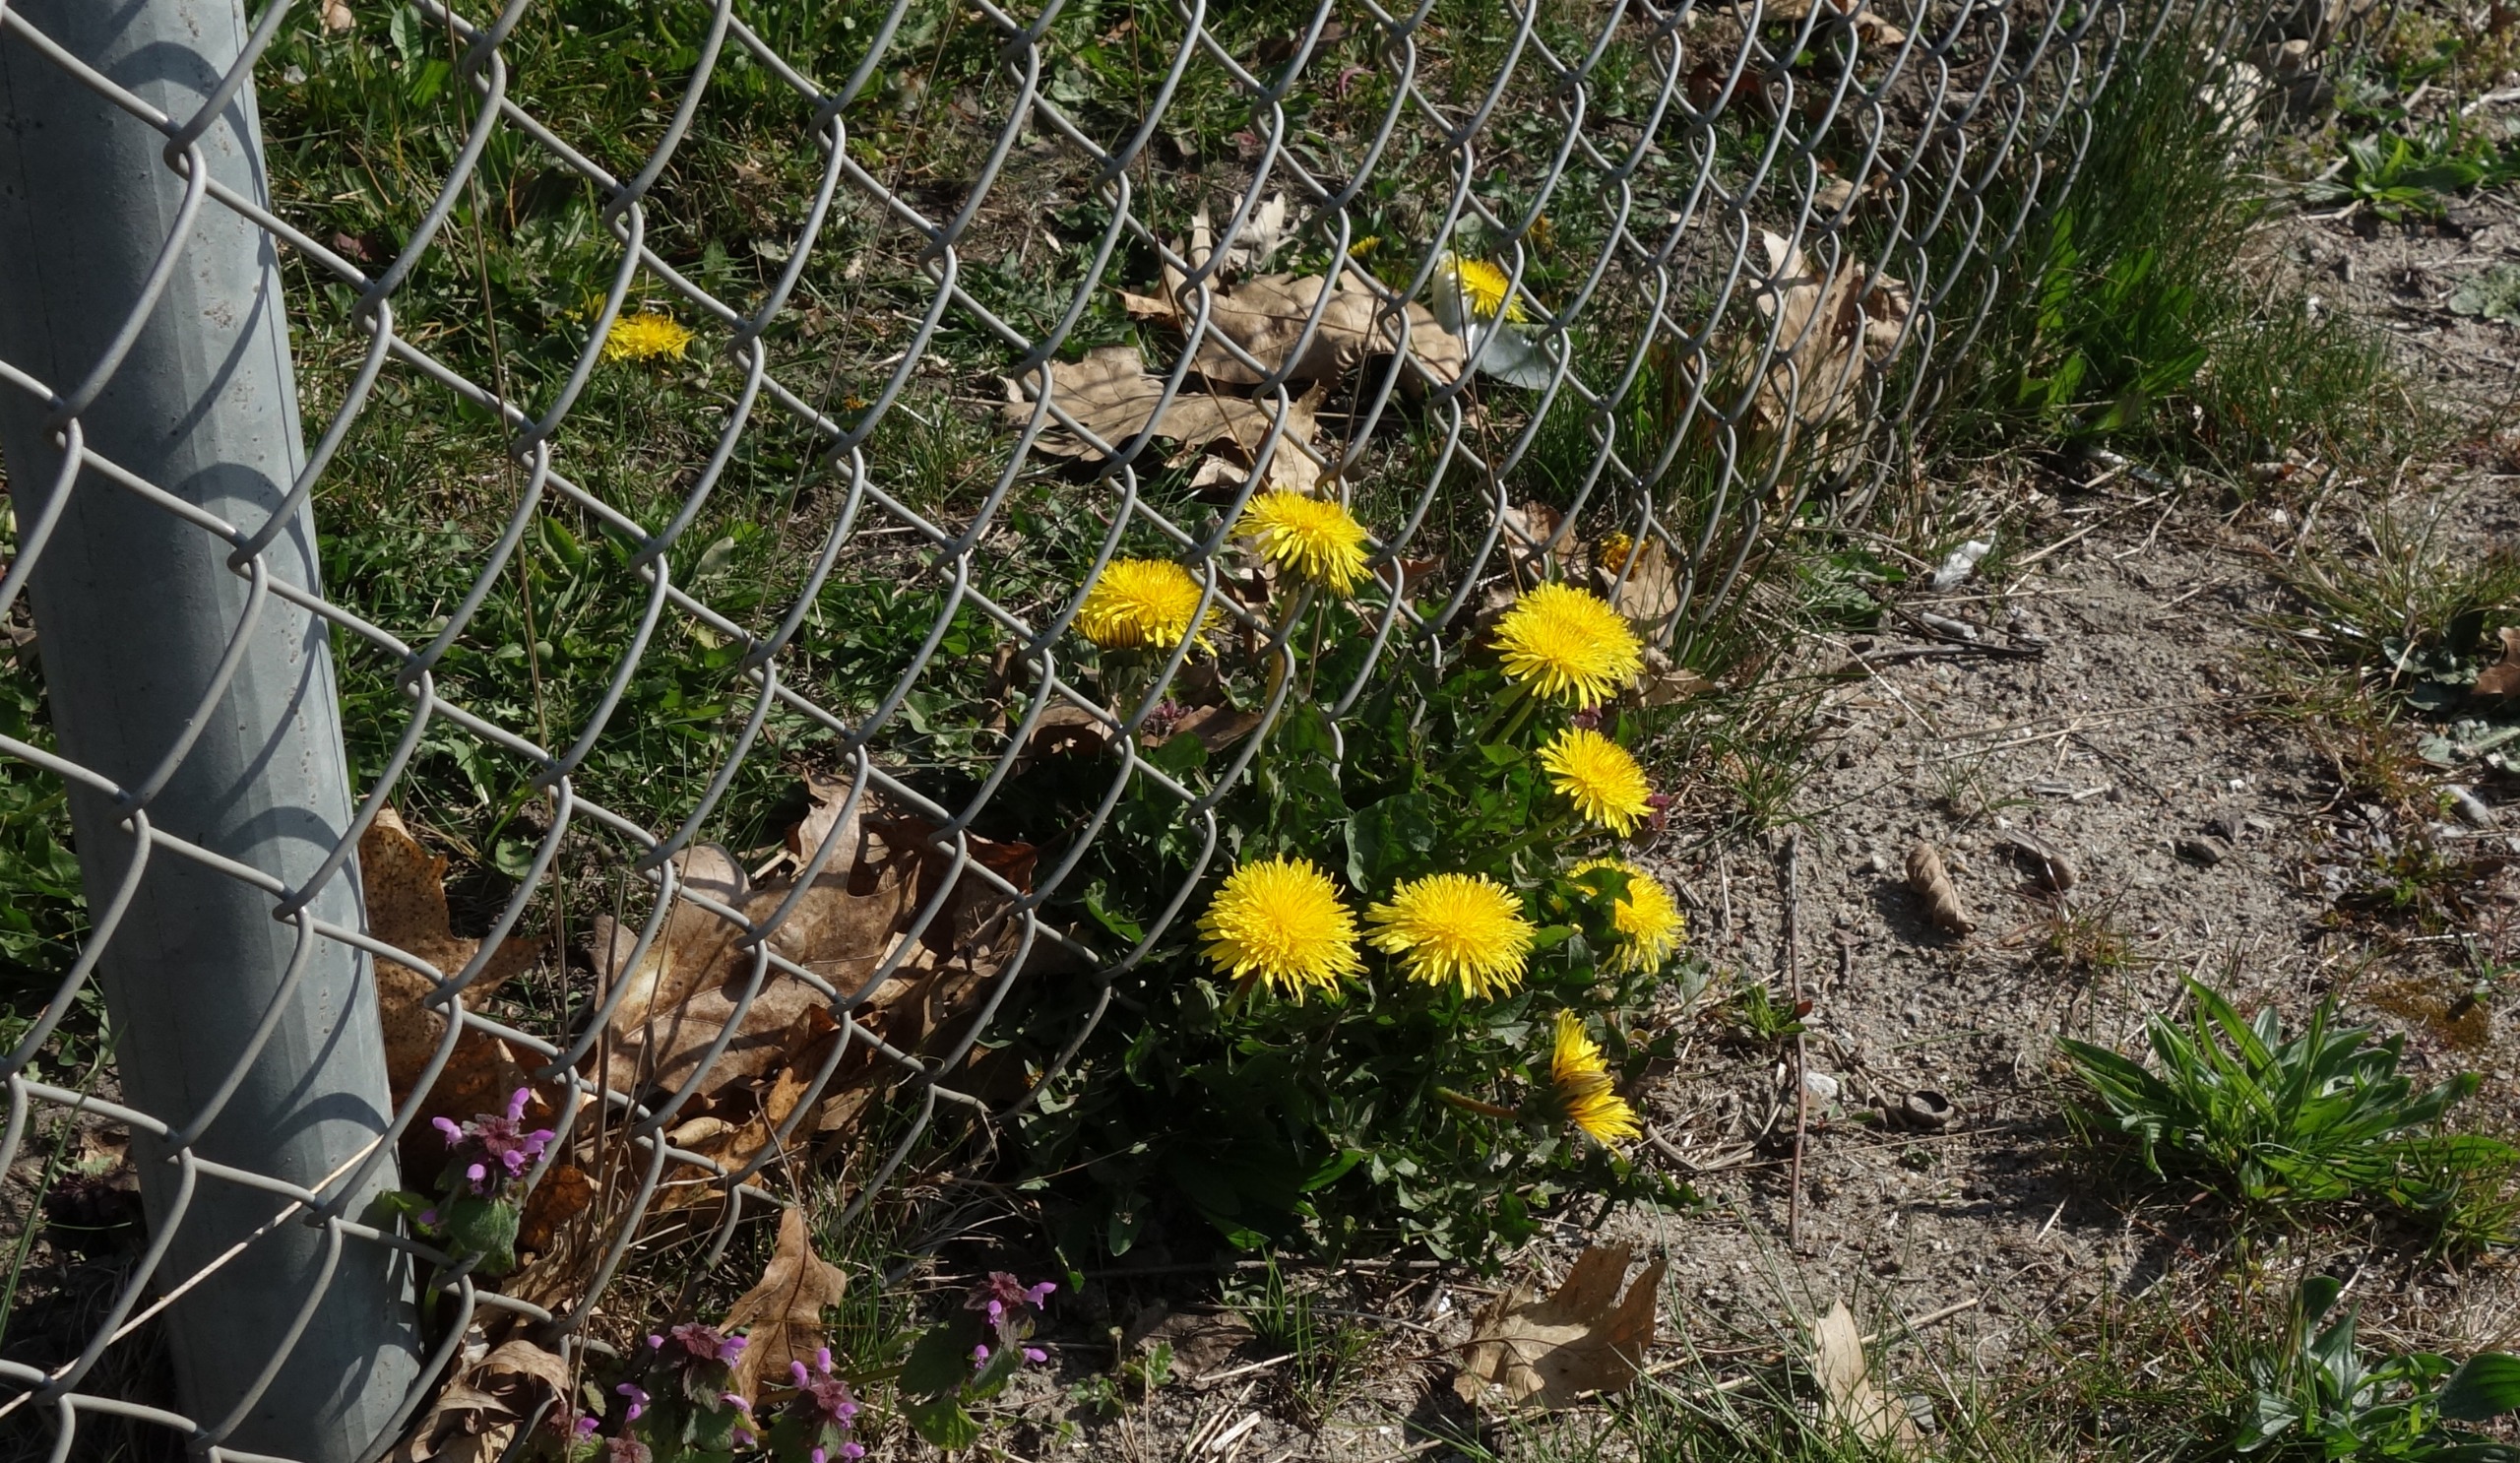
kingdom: Plantae
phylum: Tracheophyta
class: Magnoliopsida
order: Asterales
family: Asteraceae
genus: Taraxacum
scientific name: Taraxacum
